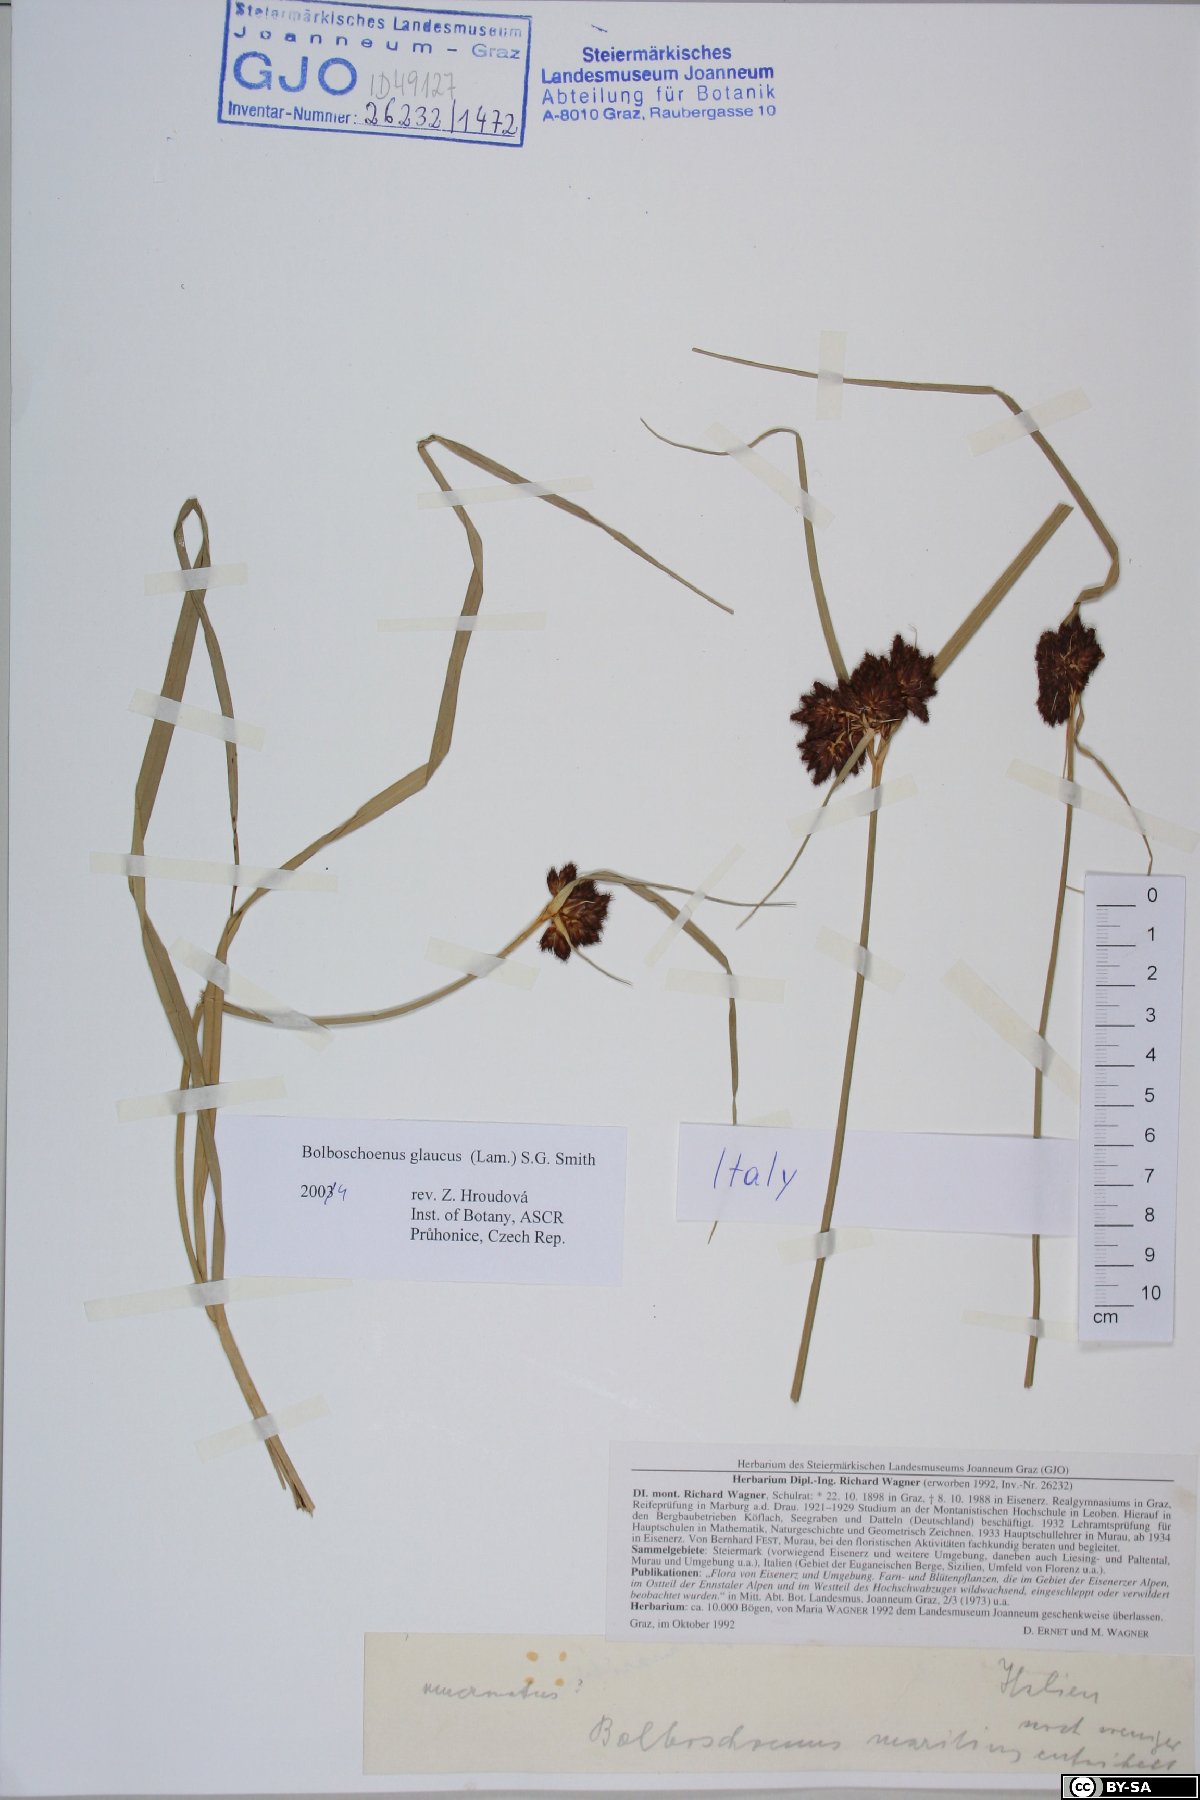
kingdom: Plantae
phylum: Tracheophyta
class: Liliopsida
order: Poales
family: Cyperaceae
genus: Bolboschoenus
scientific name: Bolboschoenus glaucus
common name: Tuberous bulrush
